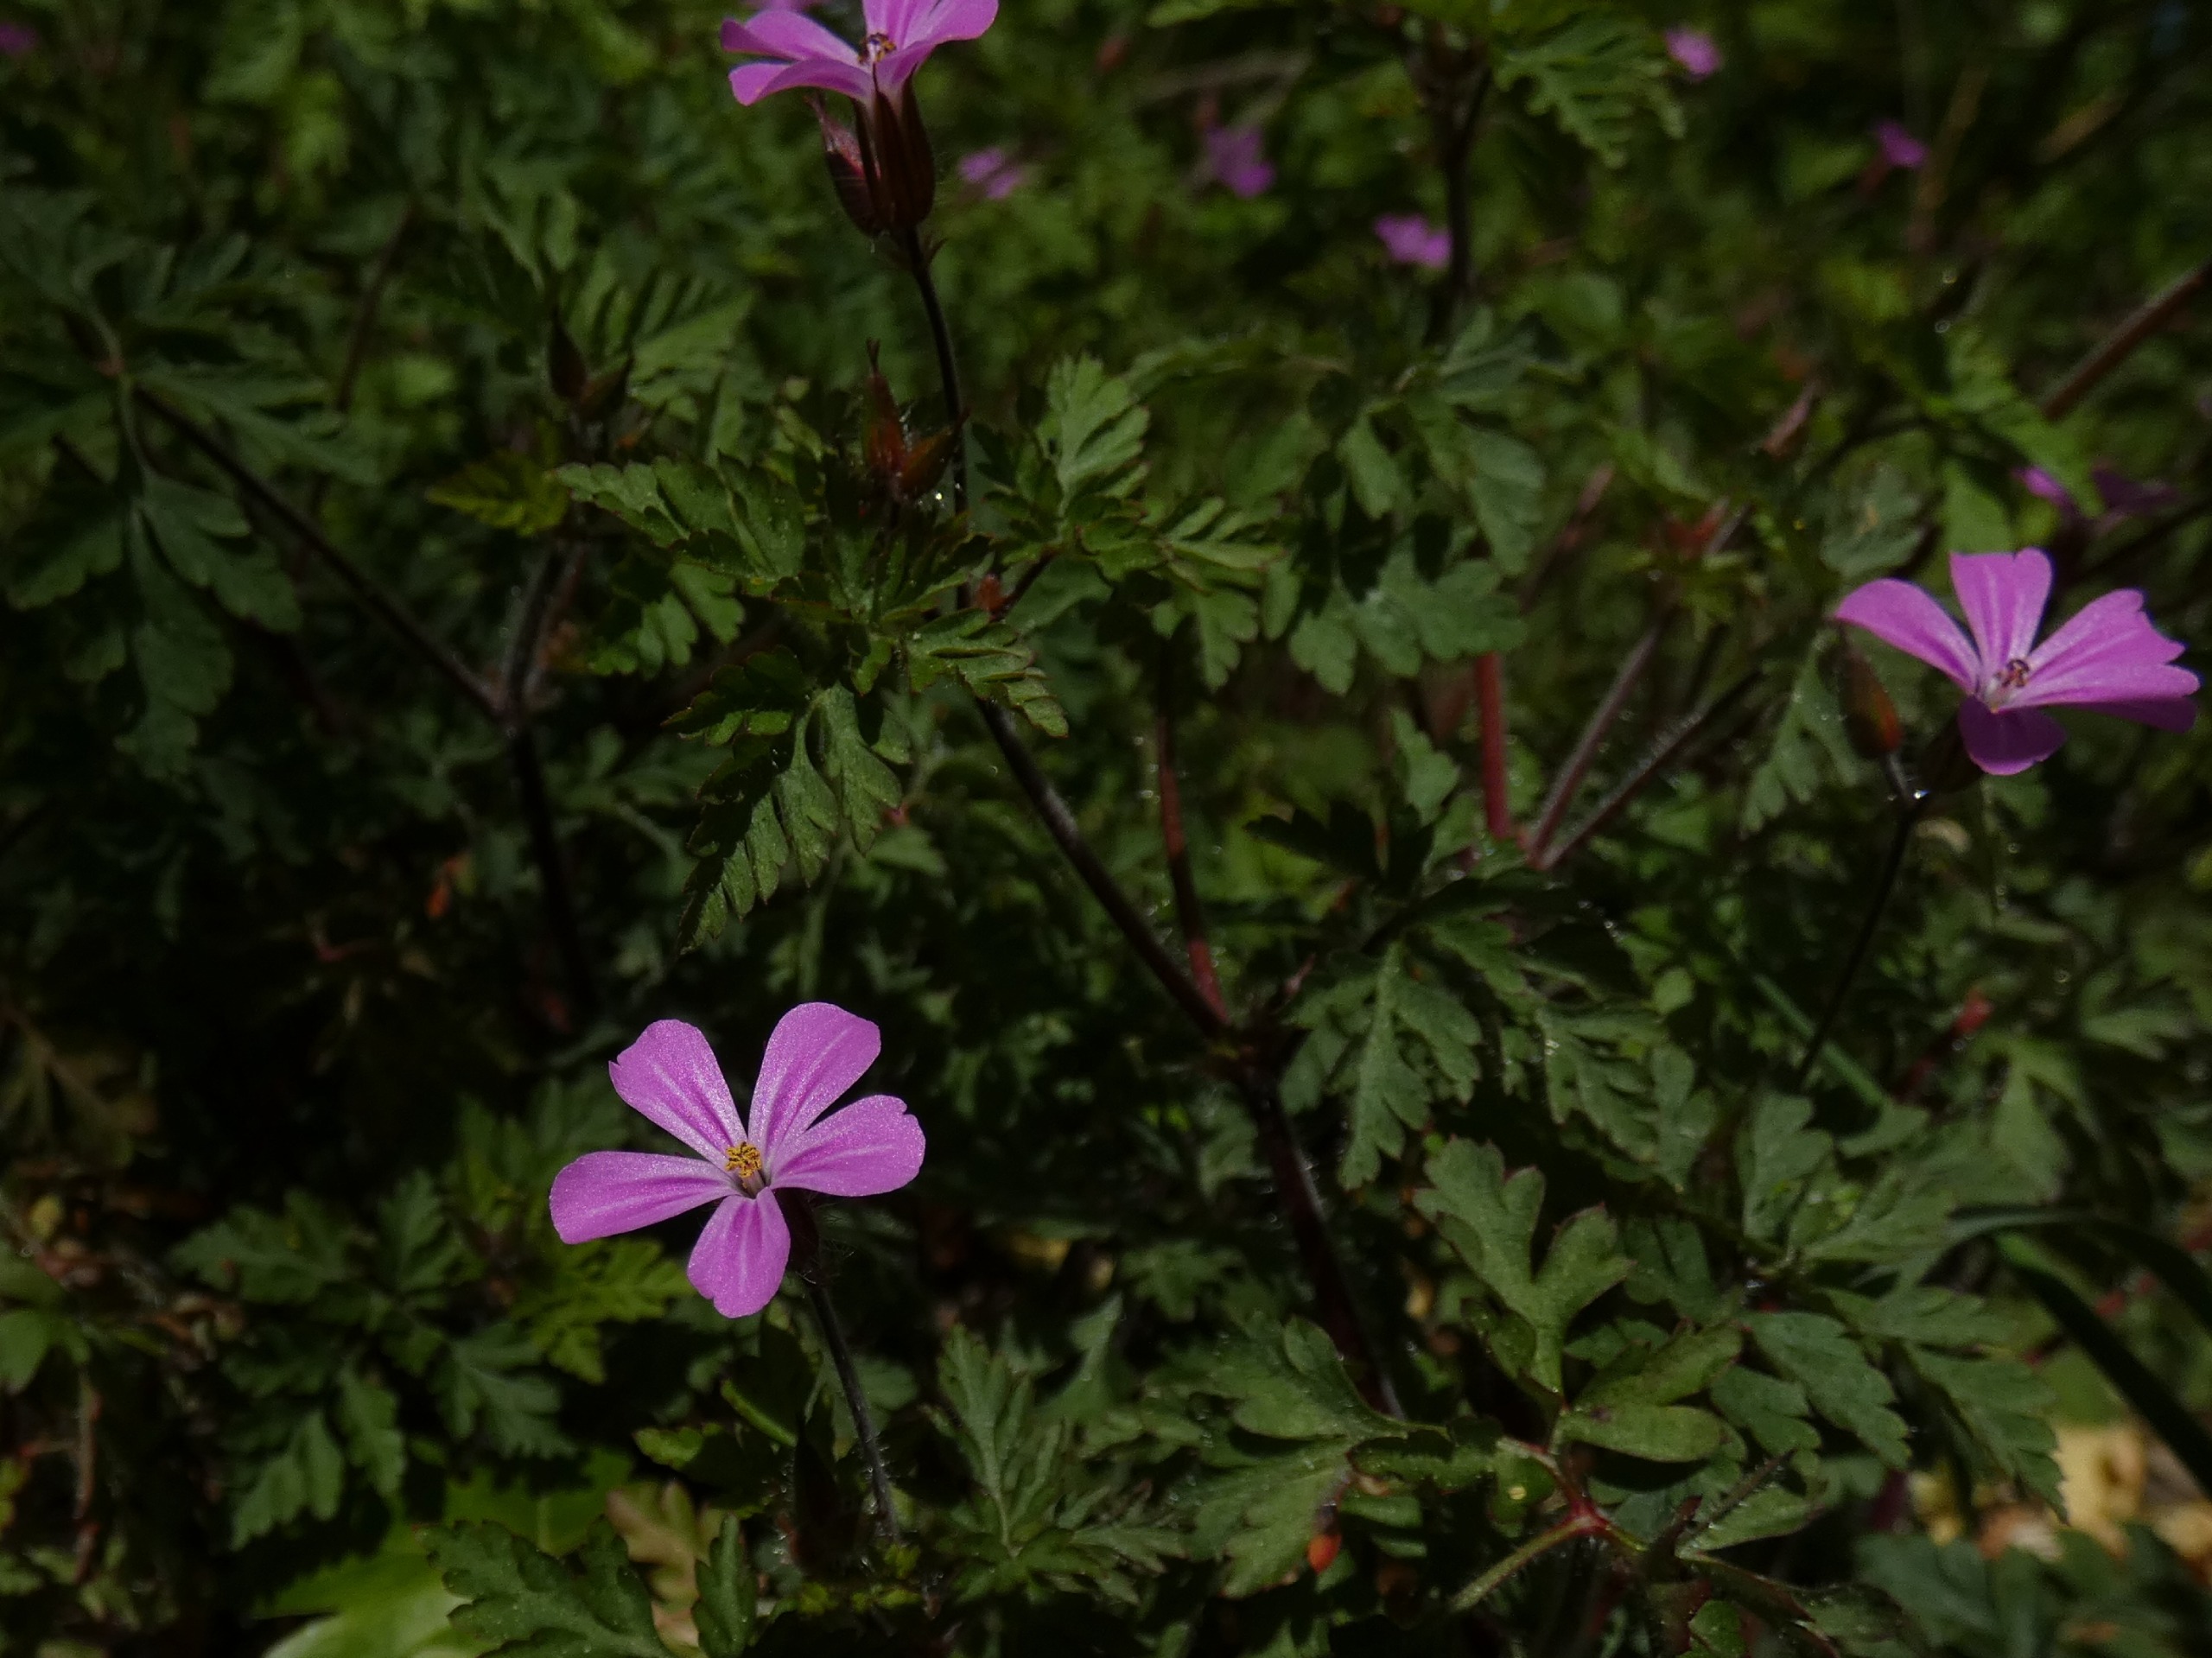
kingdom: Plantae
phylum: Tracheophyta
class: Magnoliopsida
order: Geraniales
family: Geraniaceae
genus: Geranium
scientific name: Geranium robertianum
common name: Stinkende storkenæb
